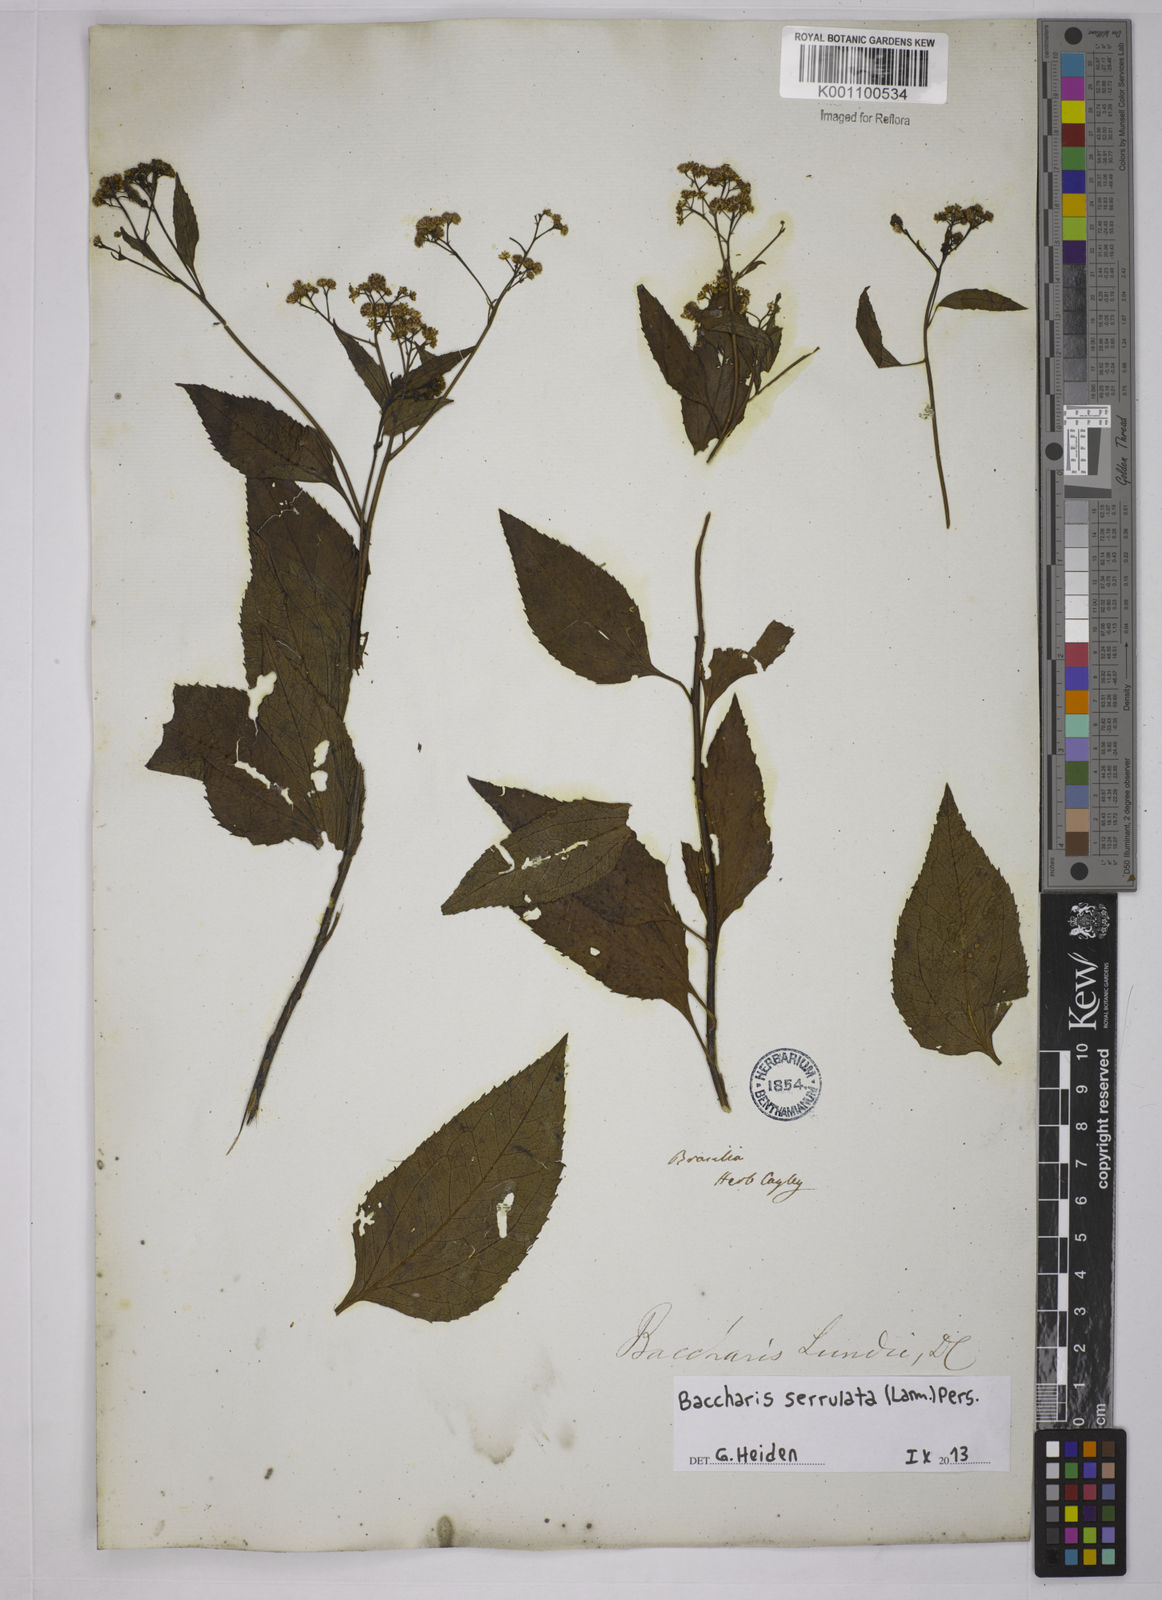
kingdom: Plantae
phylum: Tracheophyta
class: Magnoliopsida
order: Asterales
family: Asteraceae
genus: Baccharis
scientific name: Baccharis serrulata
